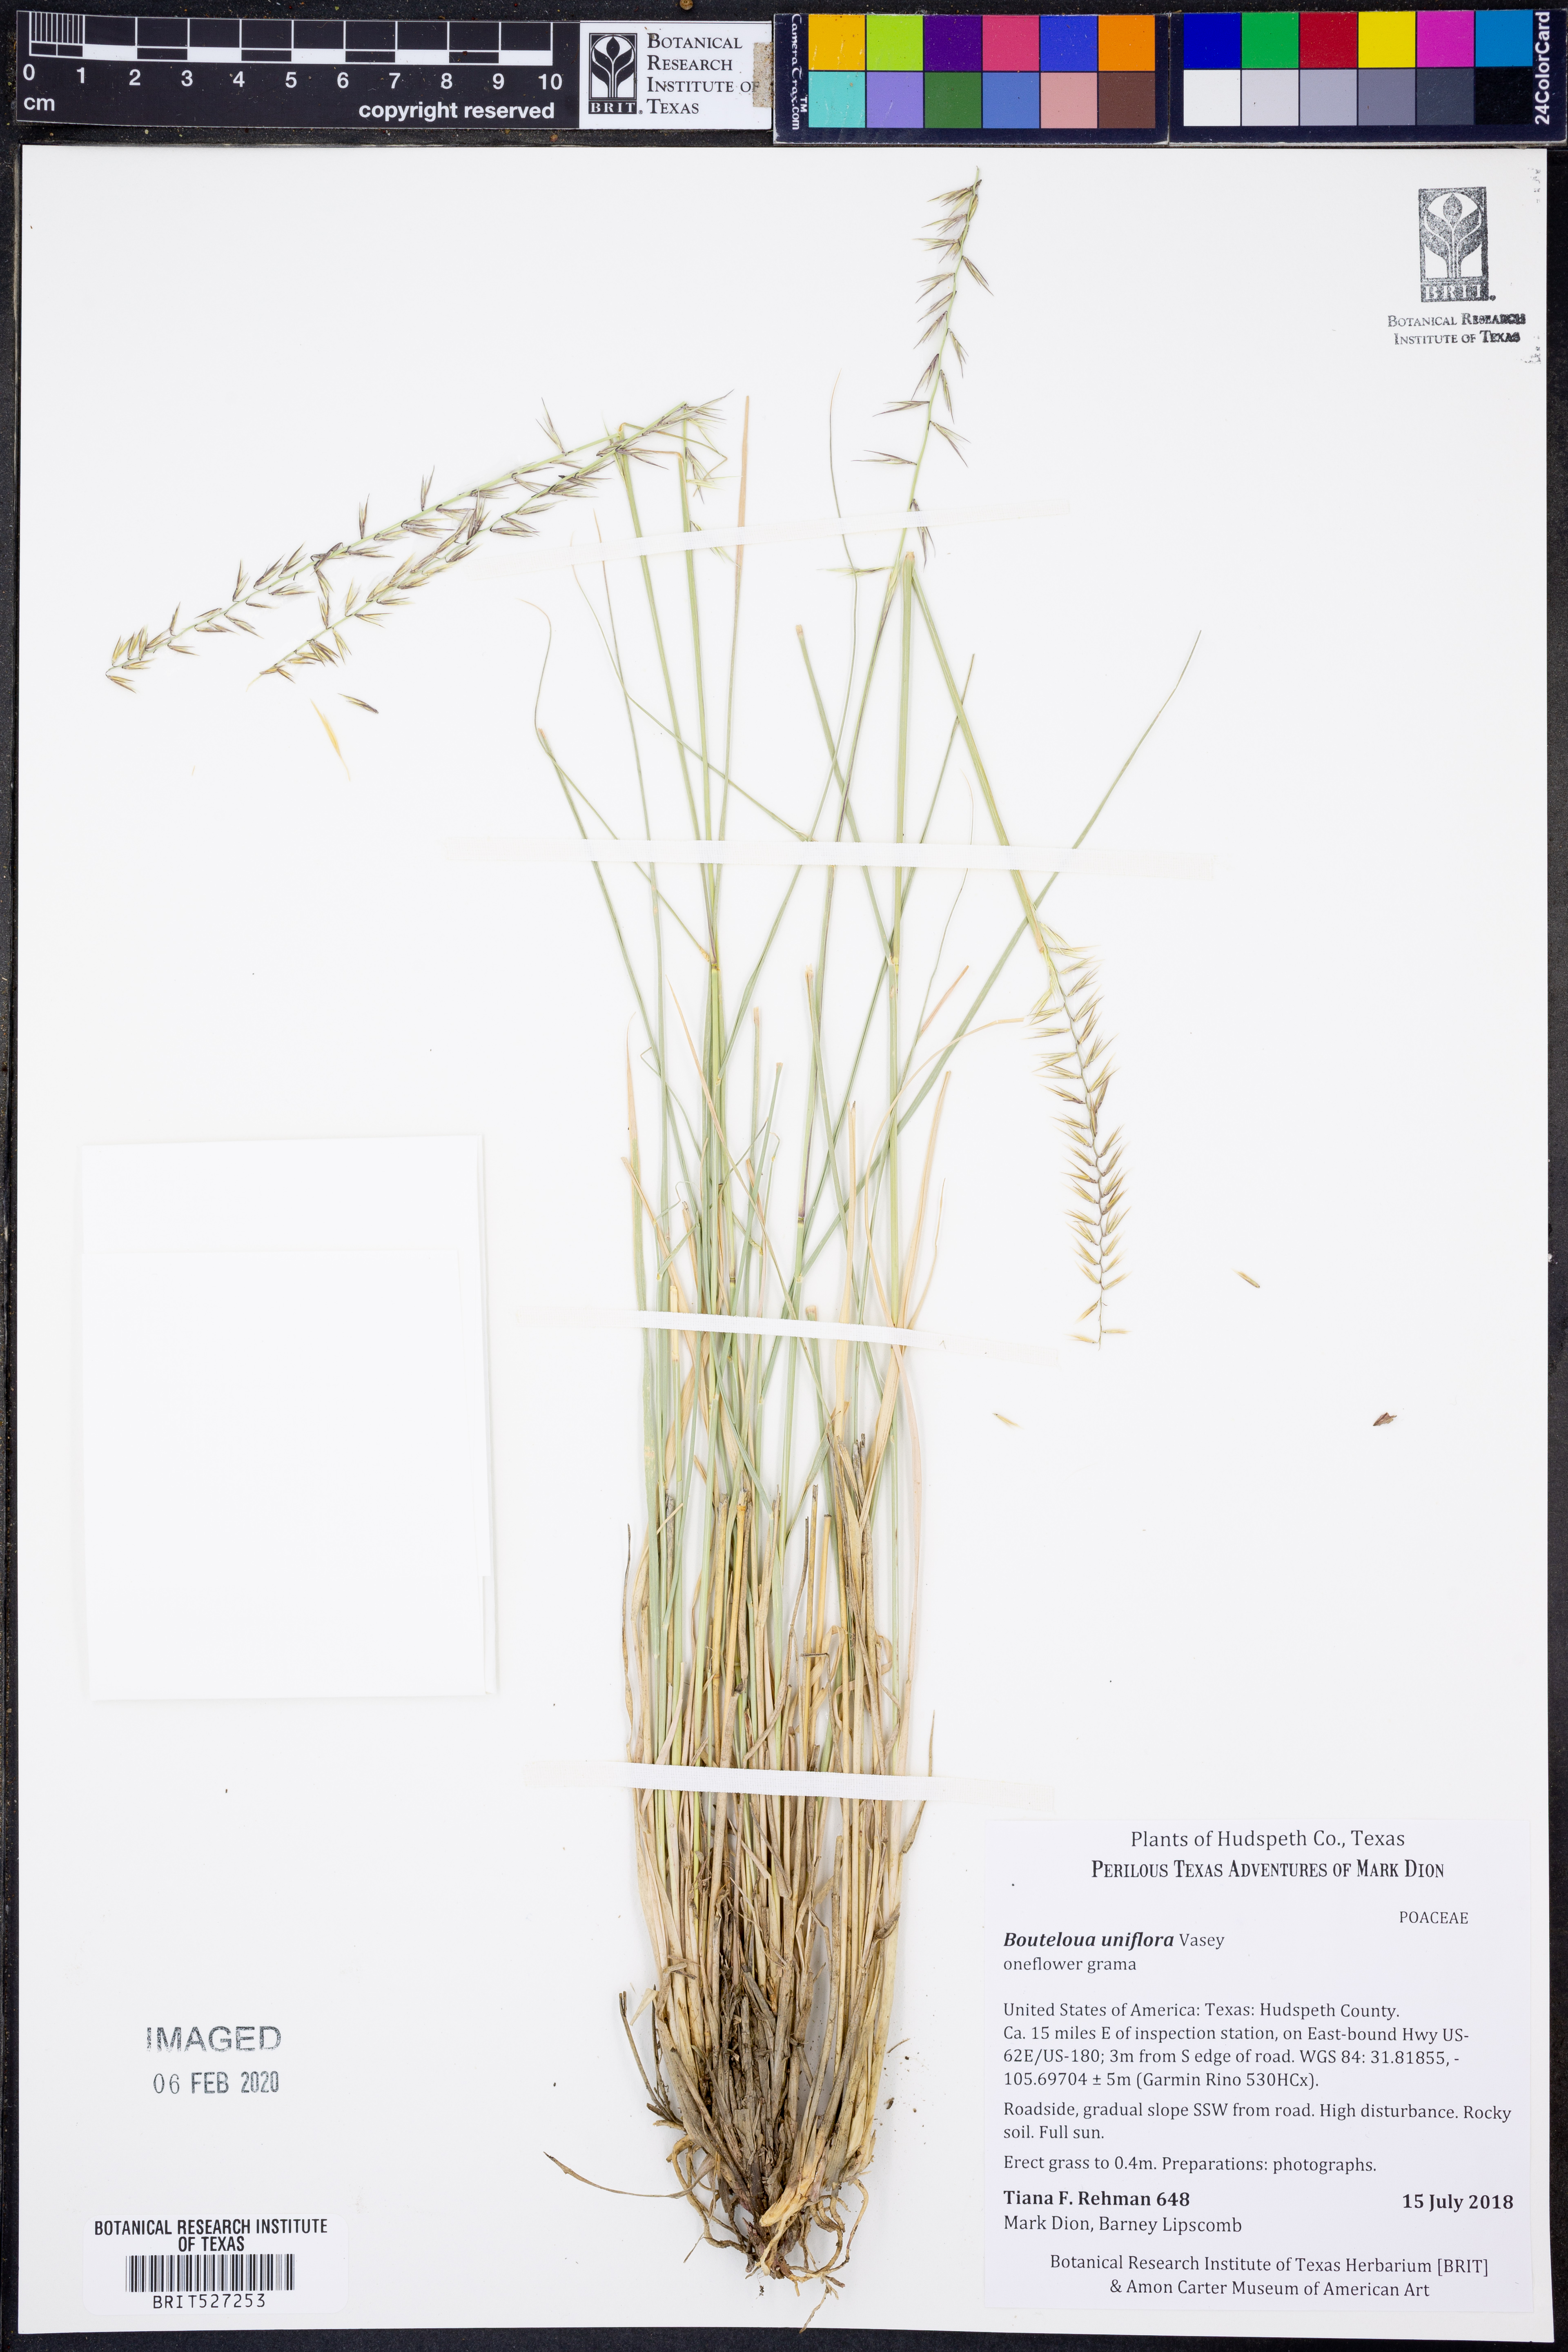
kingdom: Plantae
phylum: Tracheophyta
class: Liliopsida
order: Poales
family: Poaceae
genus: Bouteloua
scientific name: Bouteloua uniflora
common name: Neally's grama
